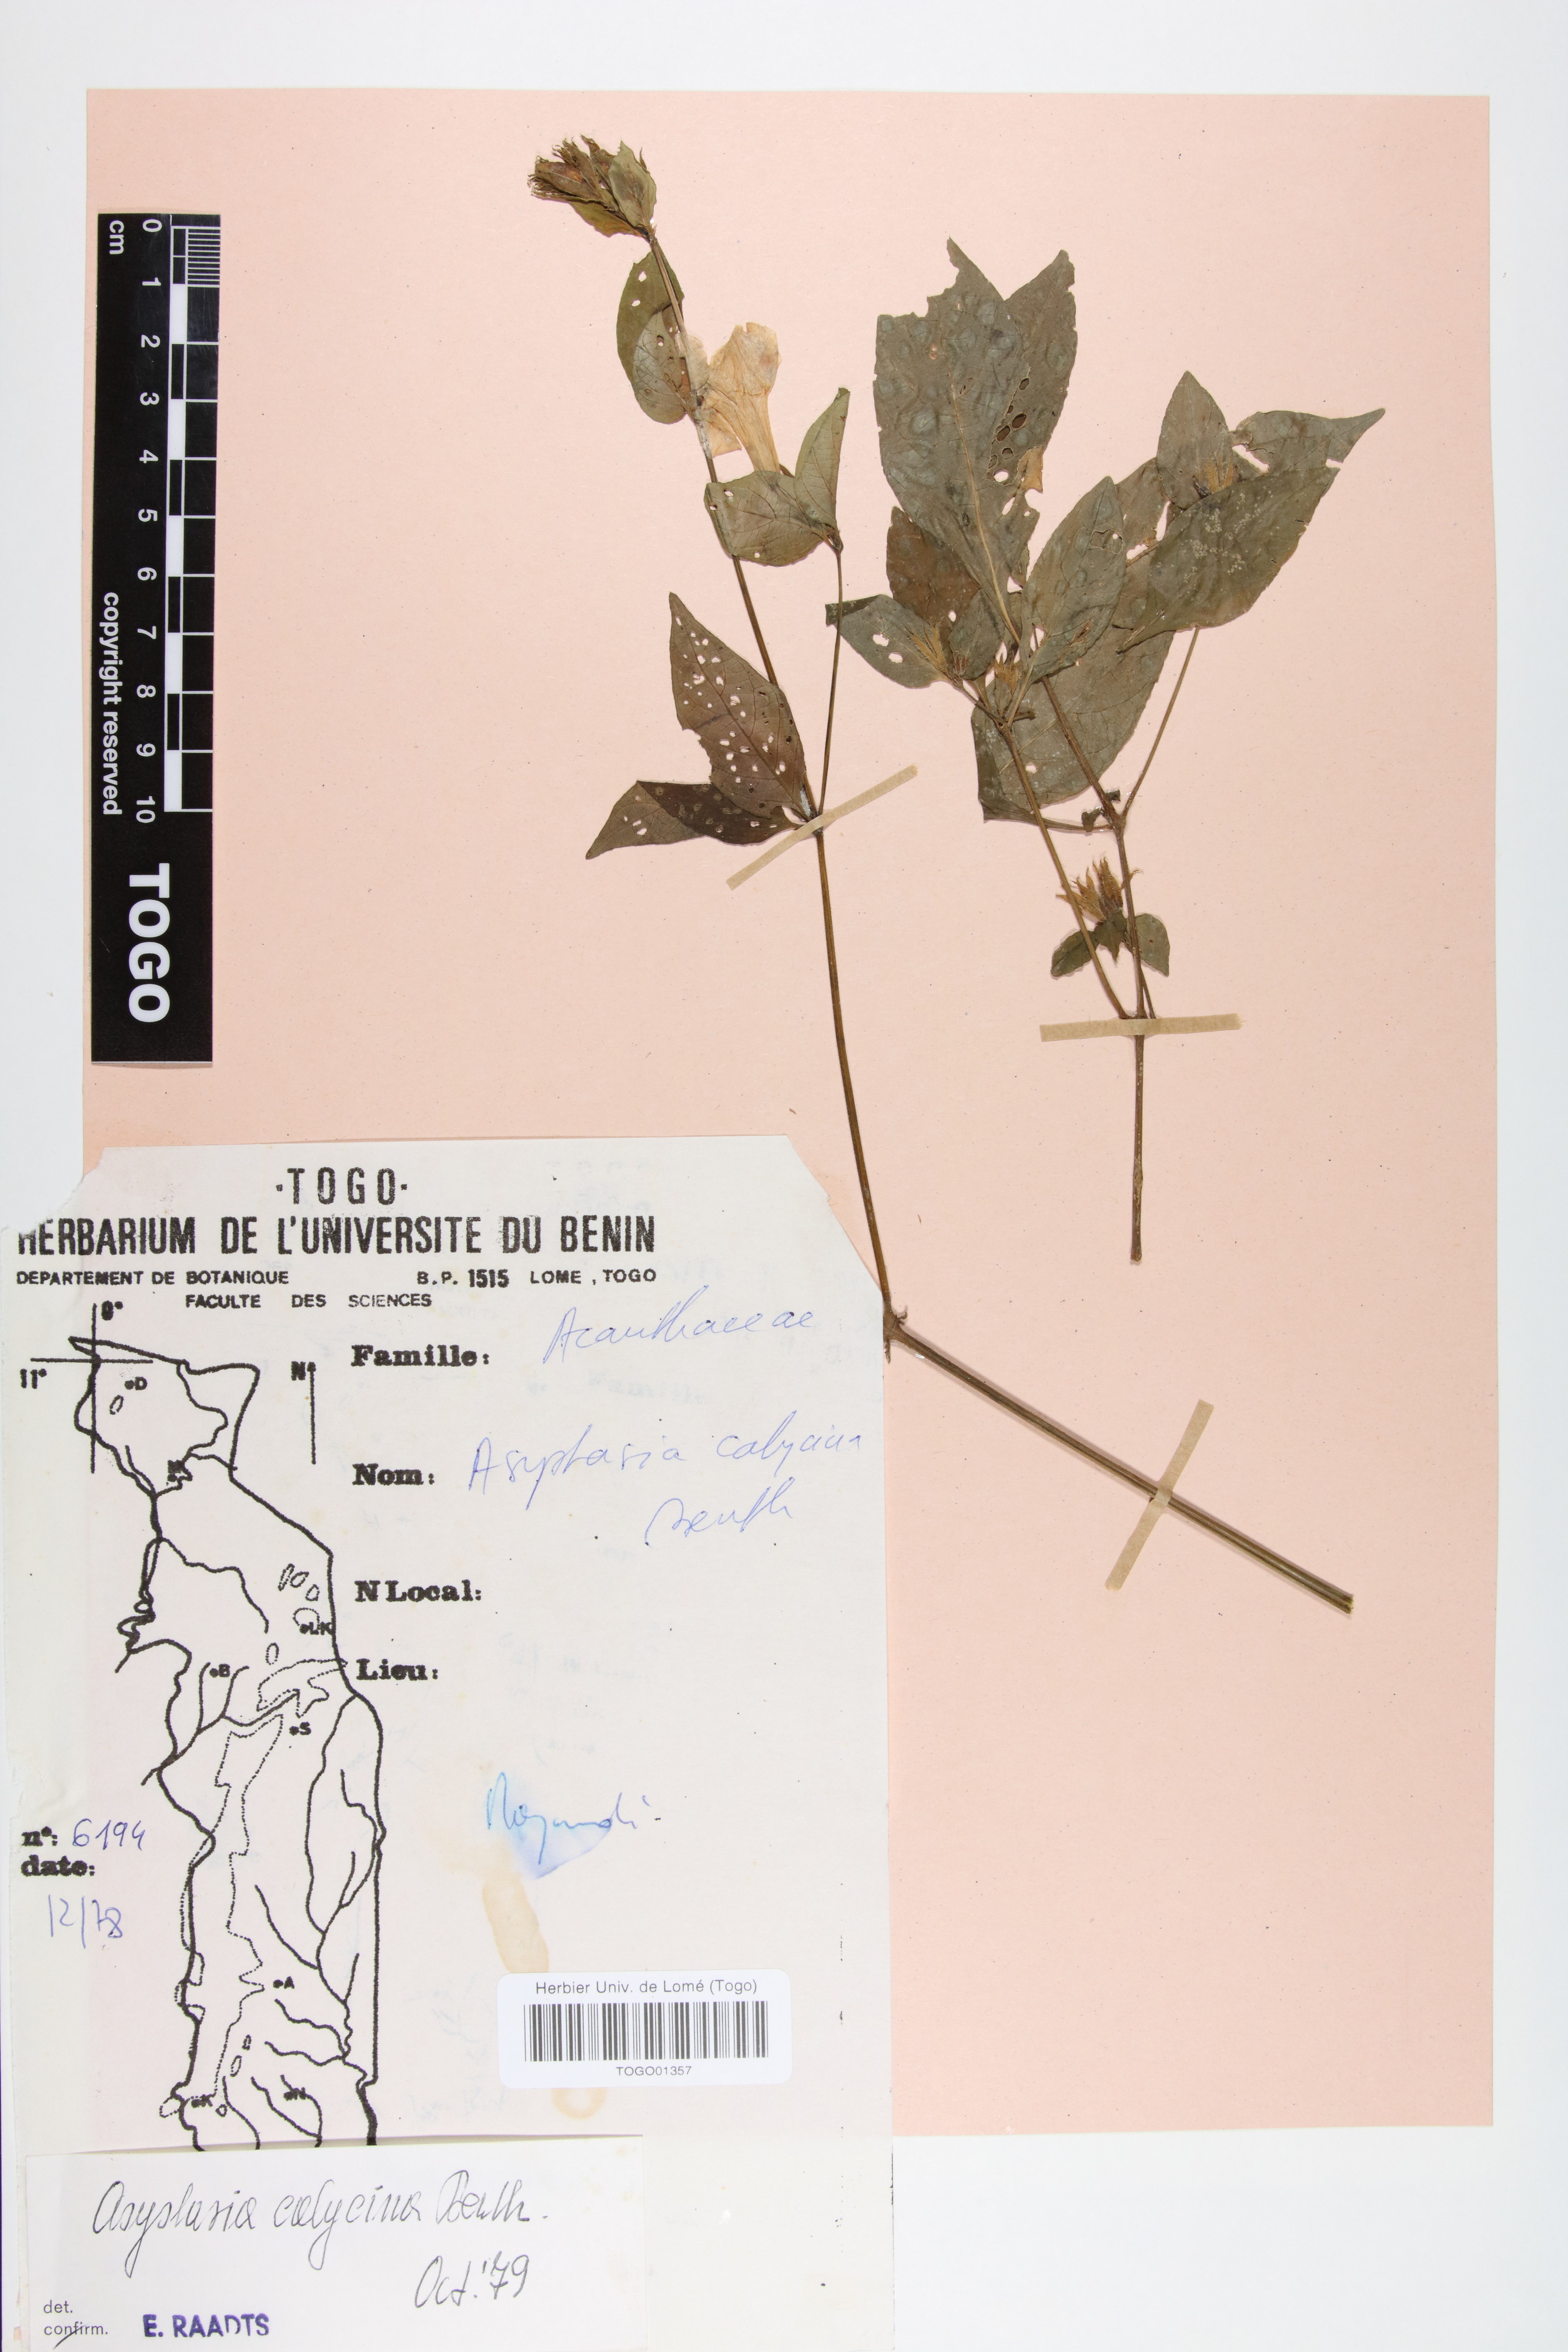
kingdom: Plantae
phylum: Tracheophyta
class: Magnoliopsida
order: Lamiales
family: Acanthaceae
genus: Asystasia
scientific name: Asystasia buettneri
